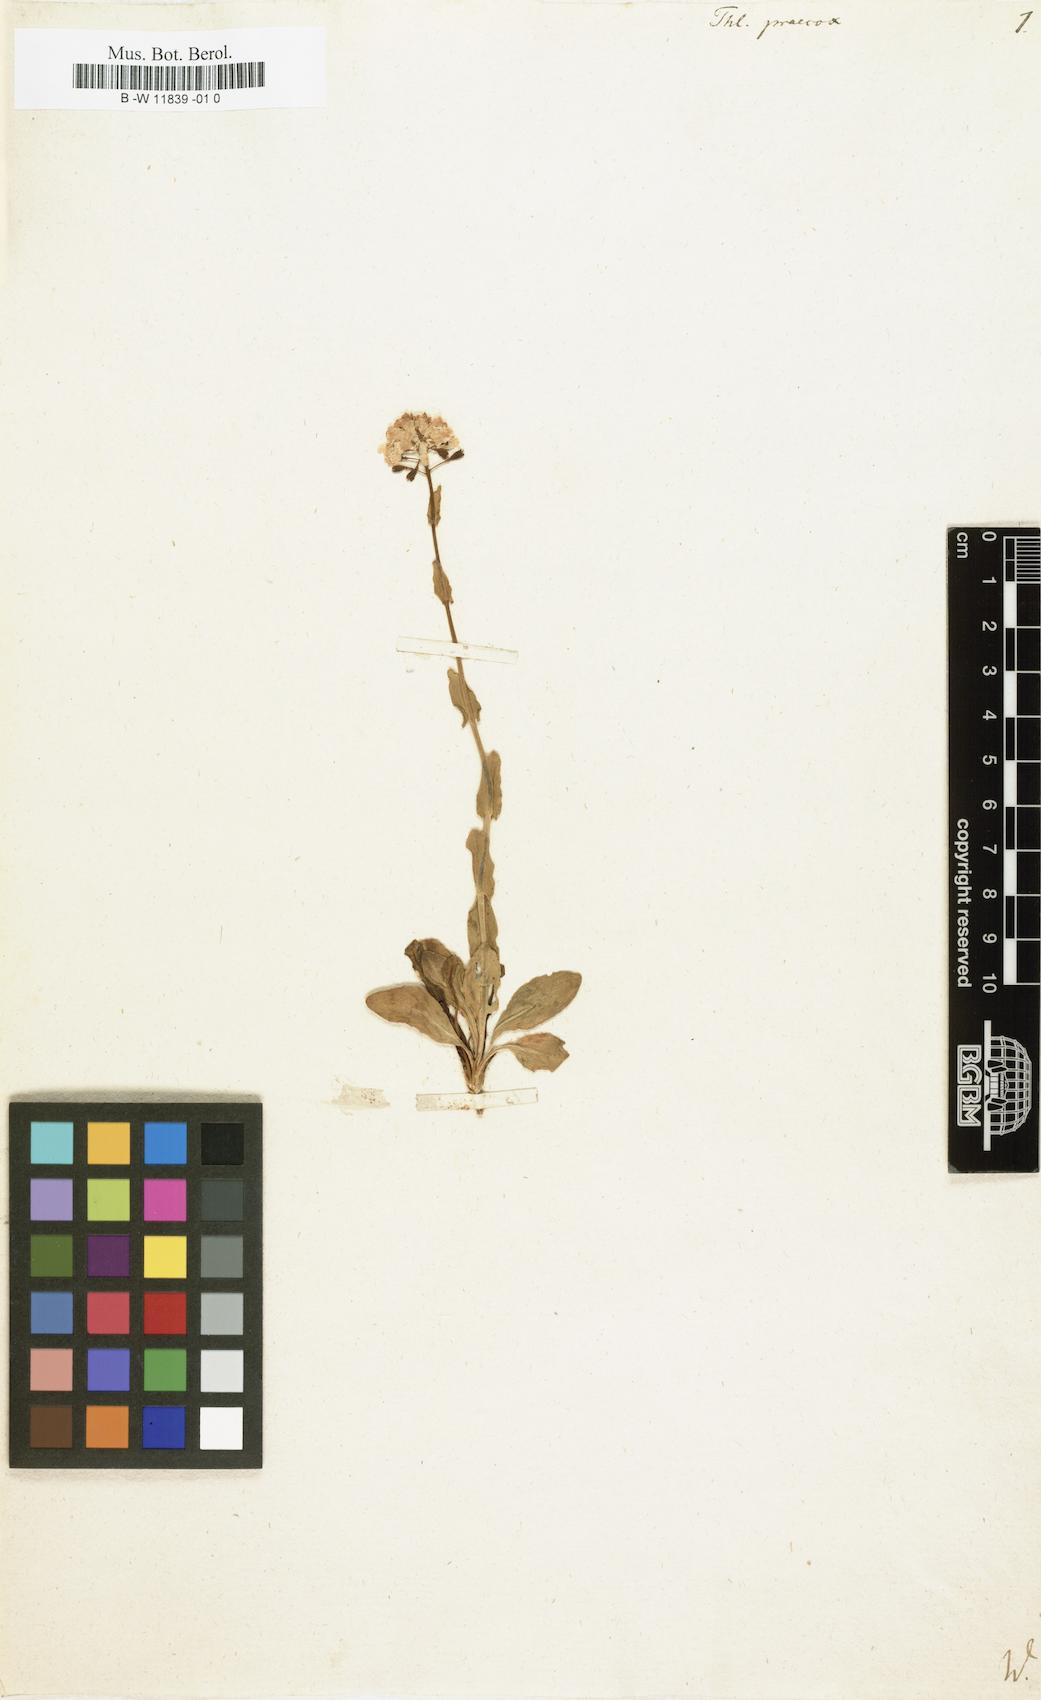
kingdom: Plantae
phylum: Tracheophyta
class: Magnoliopsida
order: Brassicales
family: Brassicaceae
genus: Thlaspi
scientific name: Thlaspi praecox
